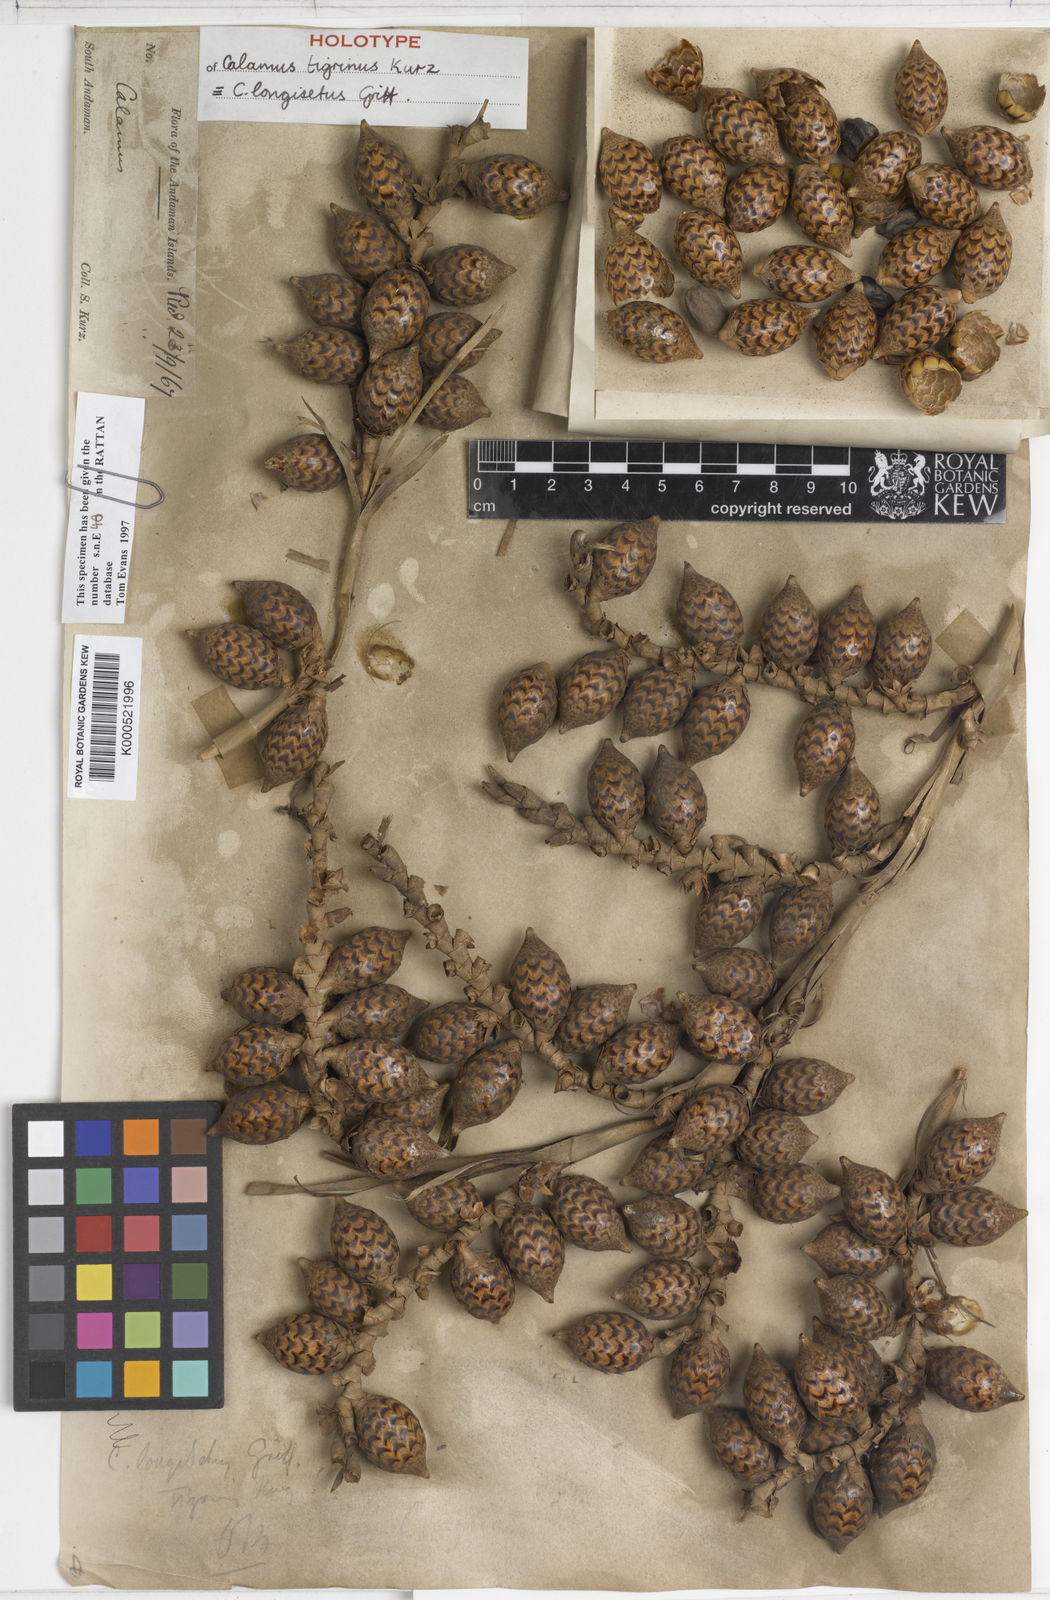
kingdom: Plantae
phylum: Tracheophyta
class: Liliopsida
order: Arecales
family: Arecaceae
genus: Calamus
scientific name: Calamus longisetus
